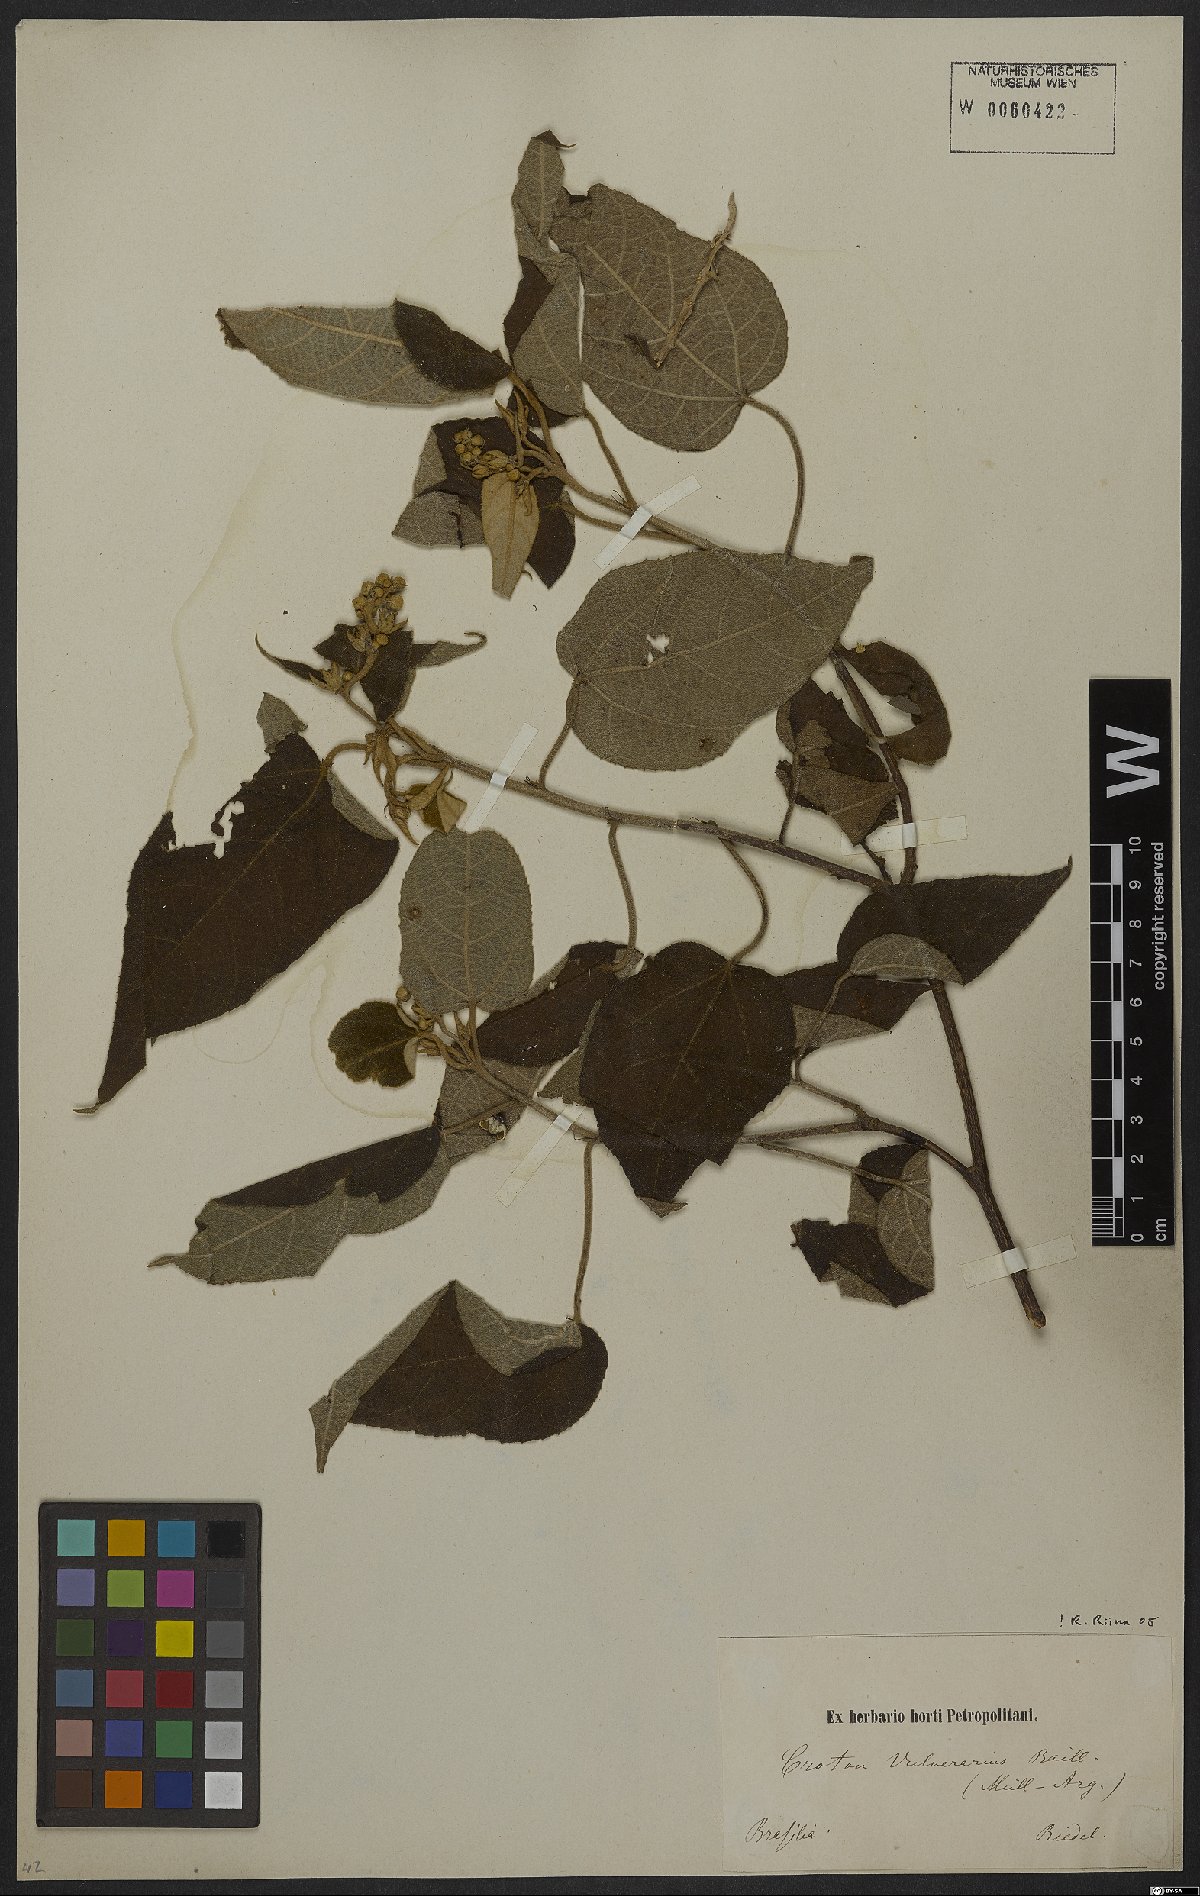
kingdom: Plantae
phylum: Tracheophyta
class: Magnoliopsida
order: Malpighiales
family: Euphorbiaceae
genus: Croton
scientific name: Croton vulnerarius
